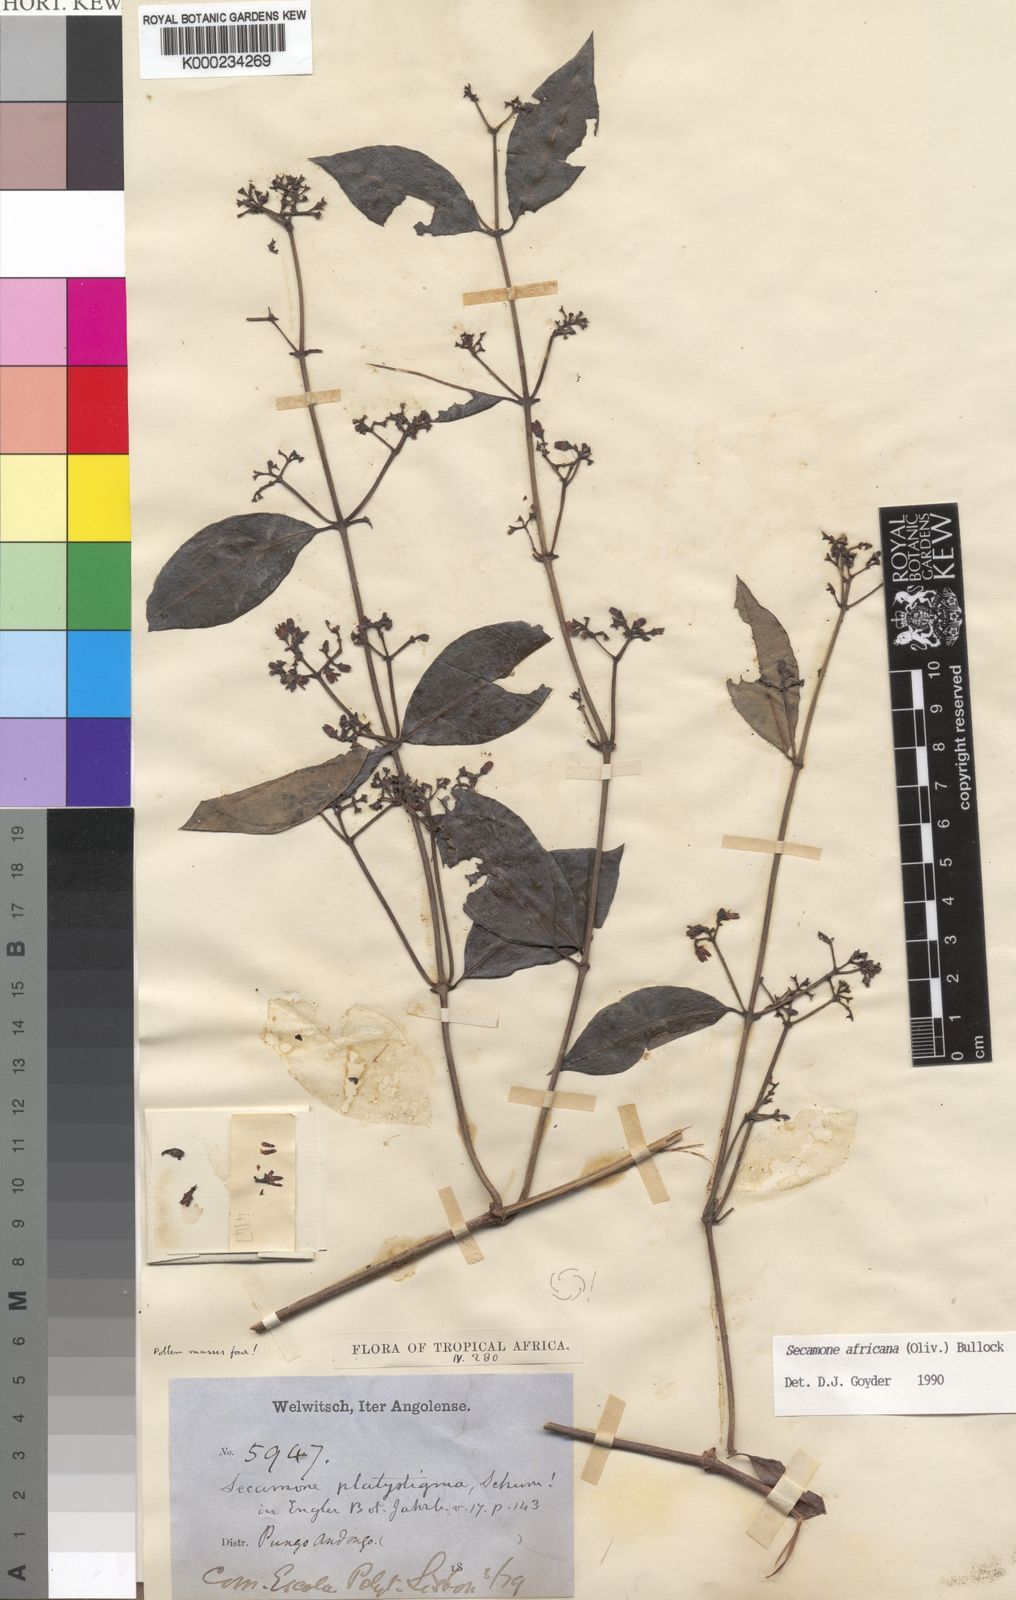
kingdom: Plantae
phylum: Tracheophyta
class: Magnoliopsida
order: Gentianales
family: Apocynaceae
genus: Secamone
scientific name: Secamone africana
